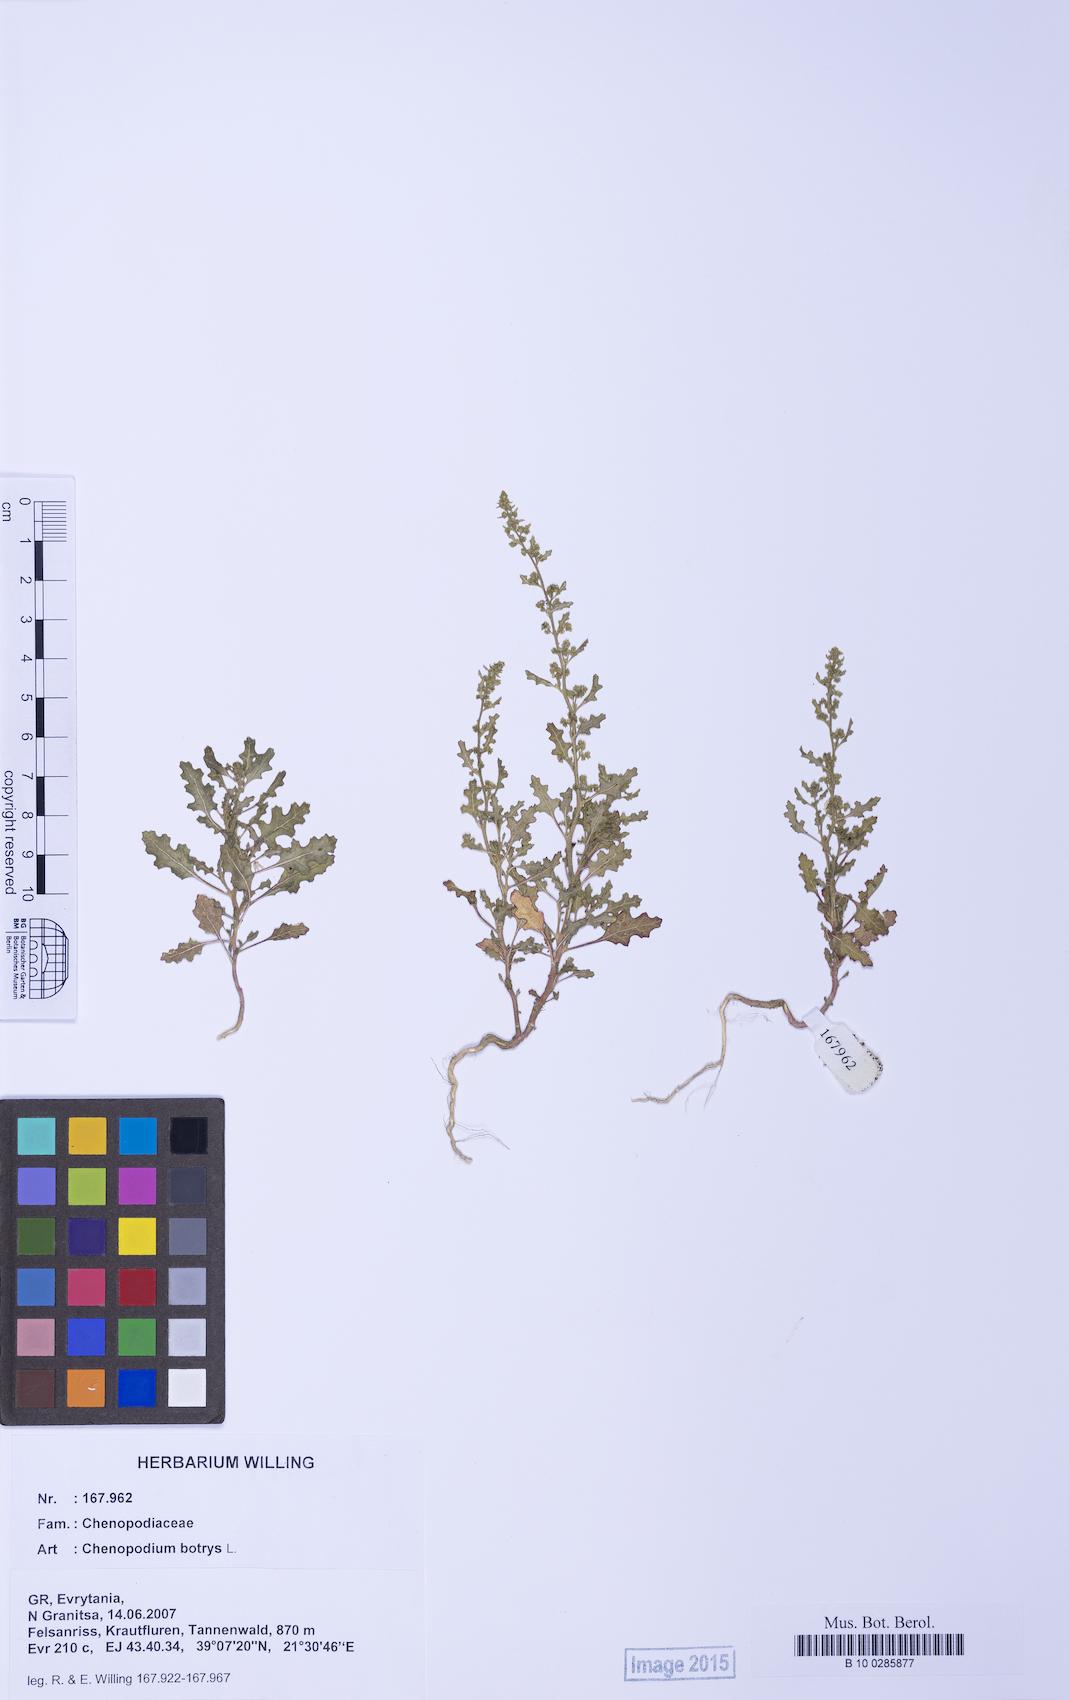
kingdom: Plantae
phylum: Tracheophyta
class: Magnoliopsida
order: Caryophyllales
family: Amaranthaceae
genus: Dysphania
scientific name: Dysphania botrys
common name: Feather-geranium
